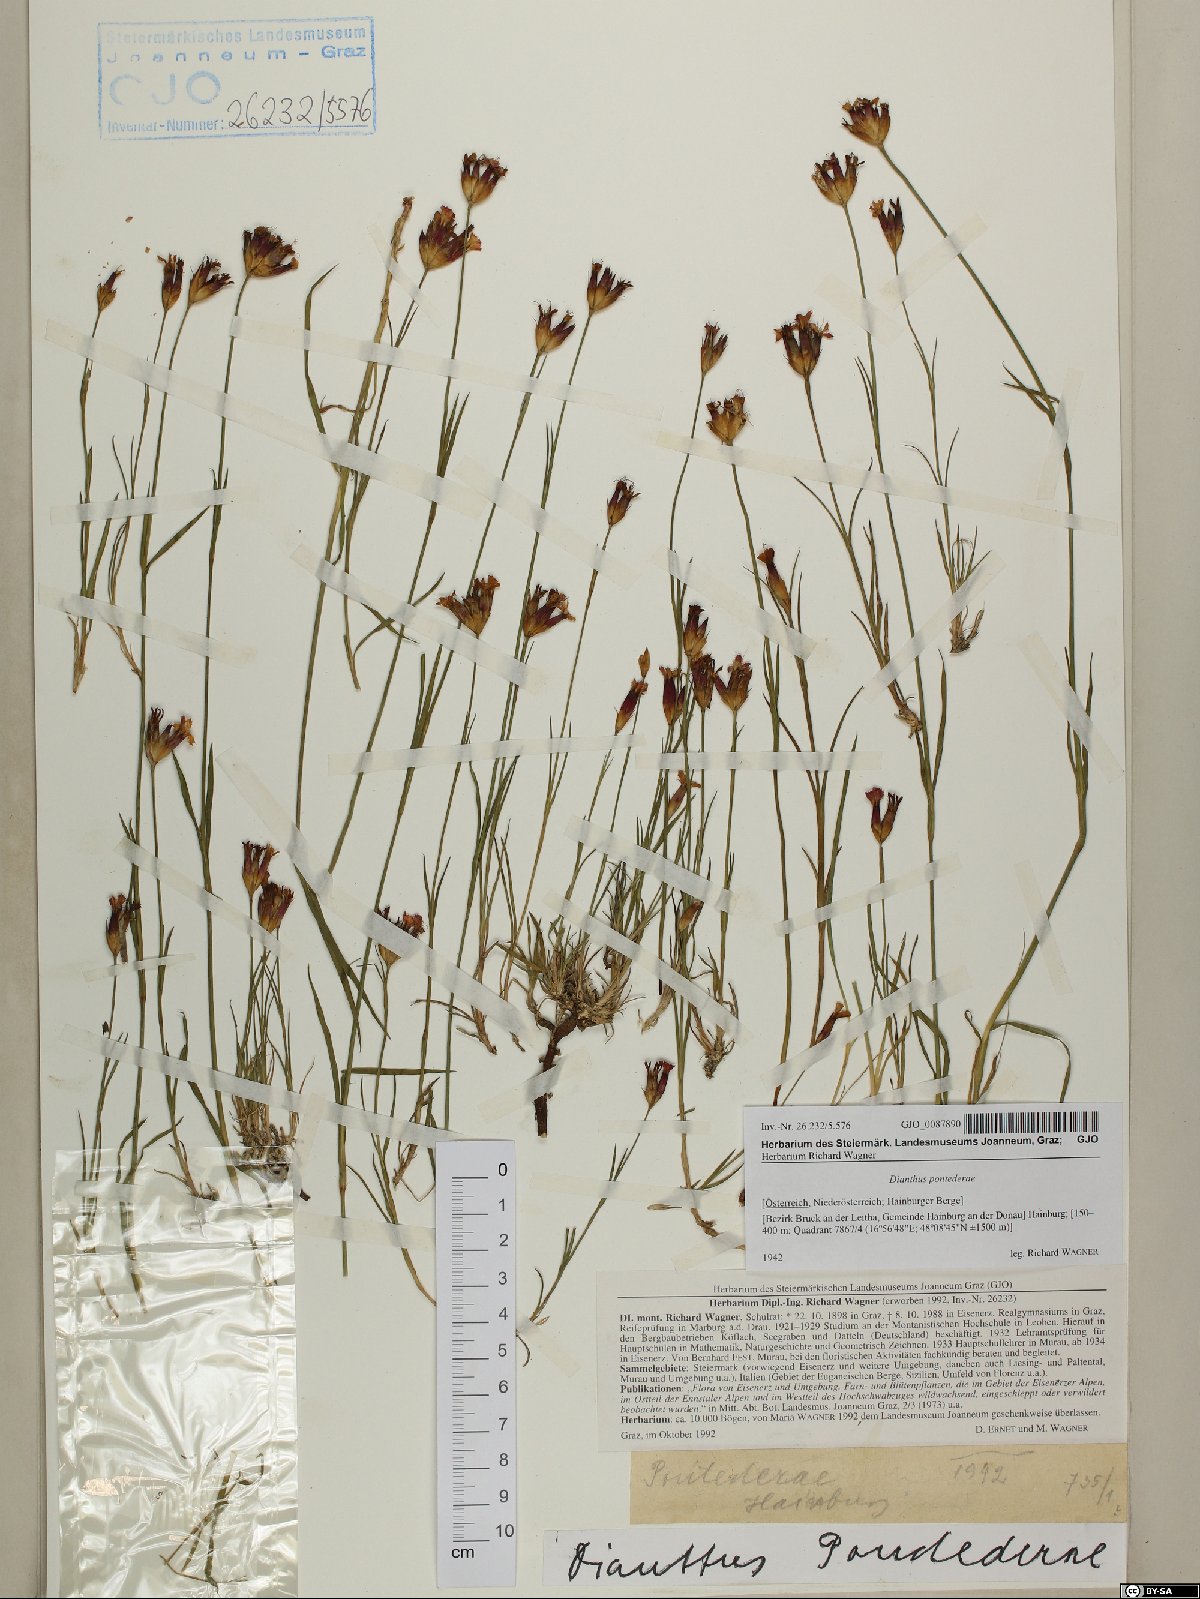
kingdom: Plantae
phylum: Tracheophyta
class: Magnoliopsida
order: Caryophyllales
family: Caryophyllaceae
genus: Dianthus
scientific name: Dianthus pontederae
